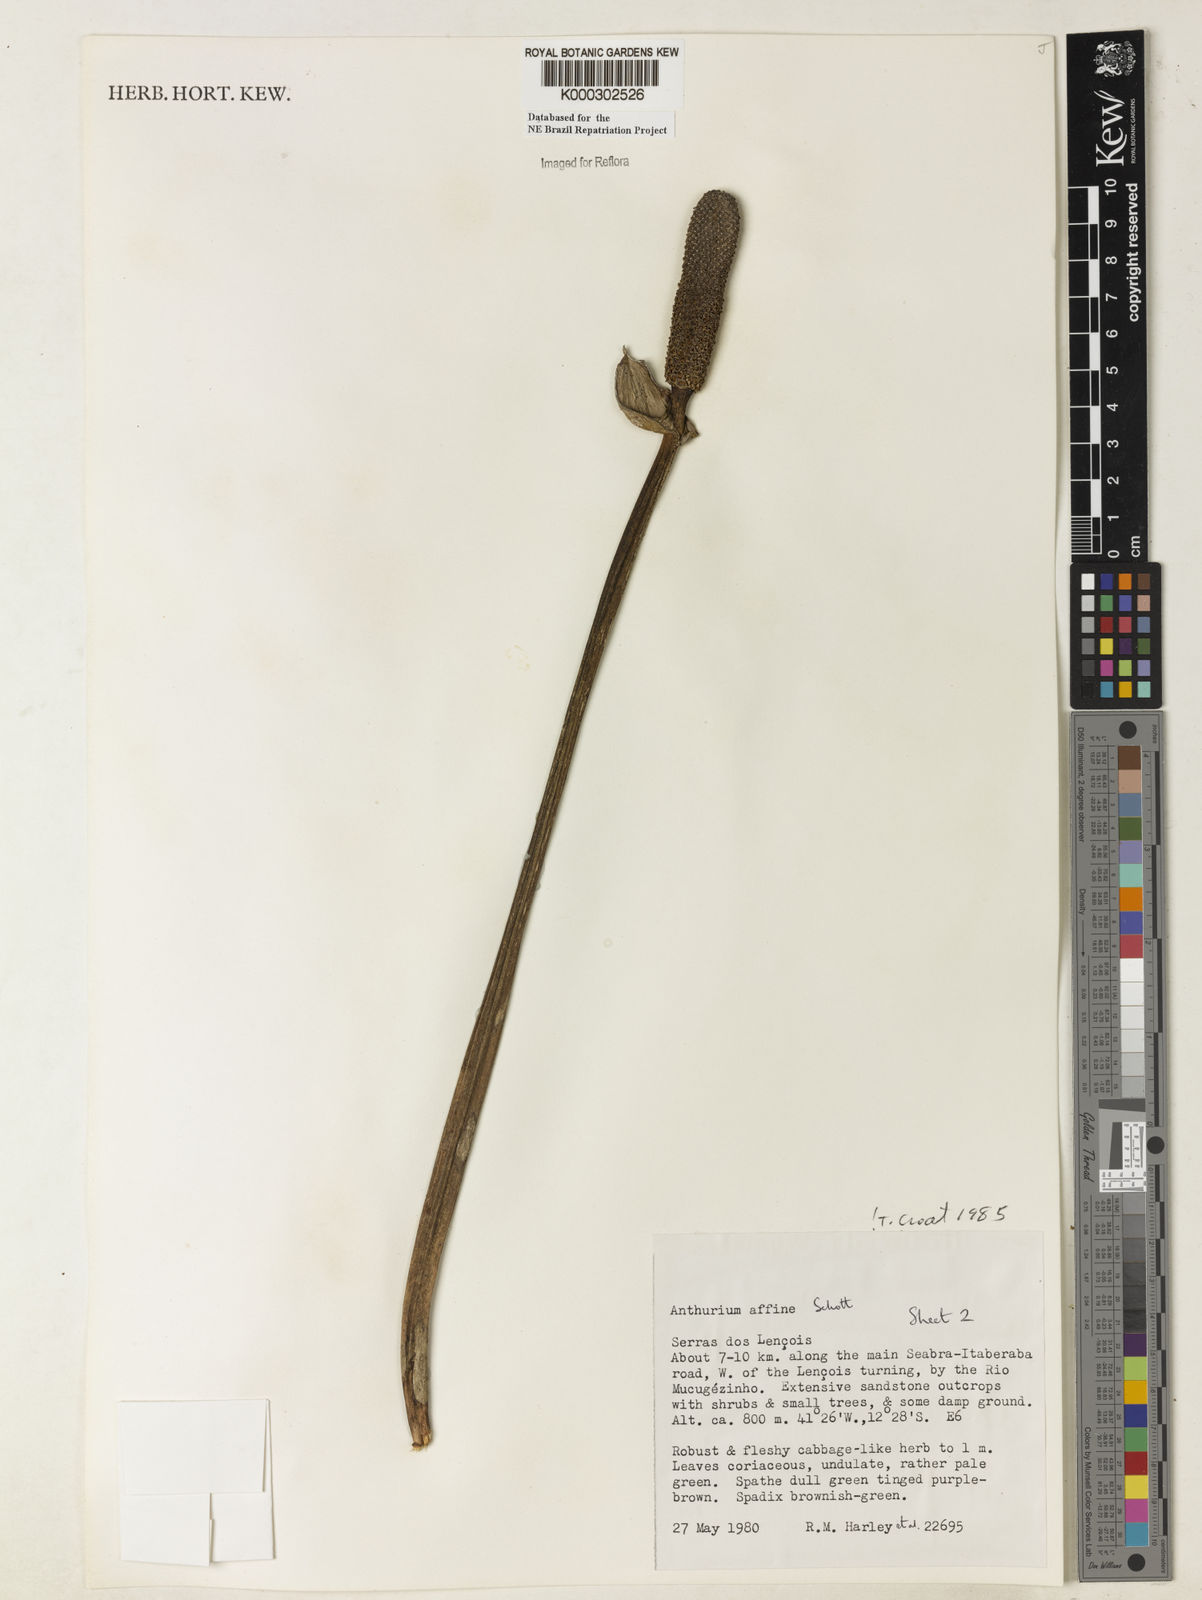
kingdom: Plantae
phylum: Tracheophyta
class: Liliopsida
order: Alismatales
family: Araceae
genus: Anthurium
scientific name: Anthurium affine
